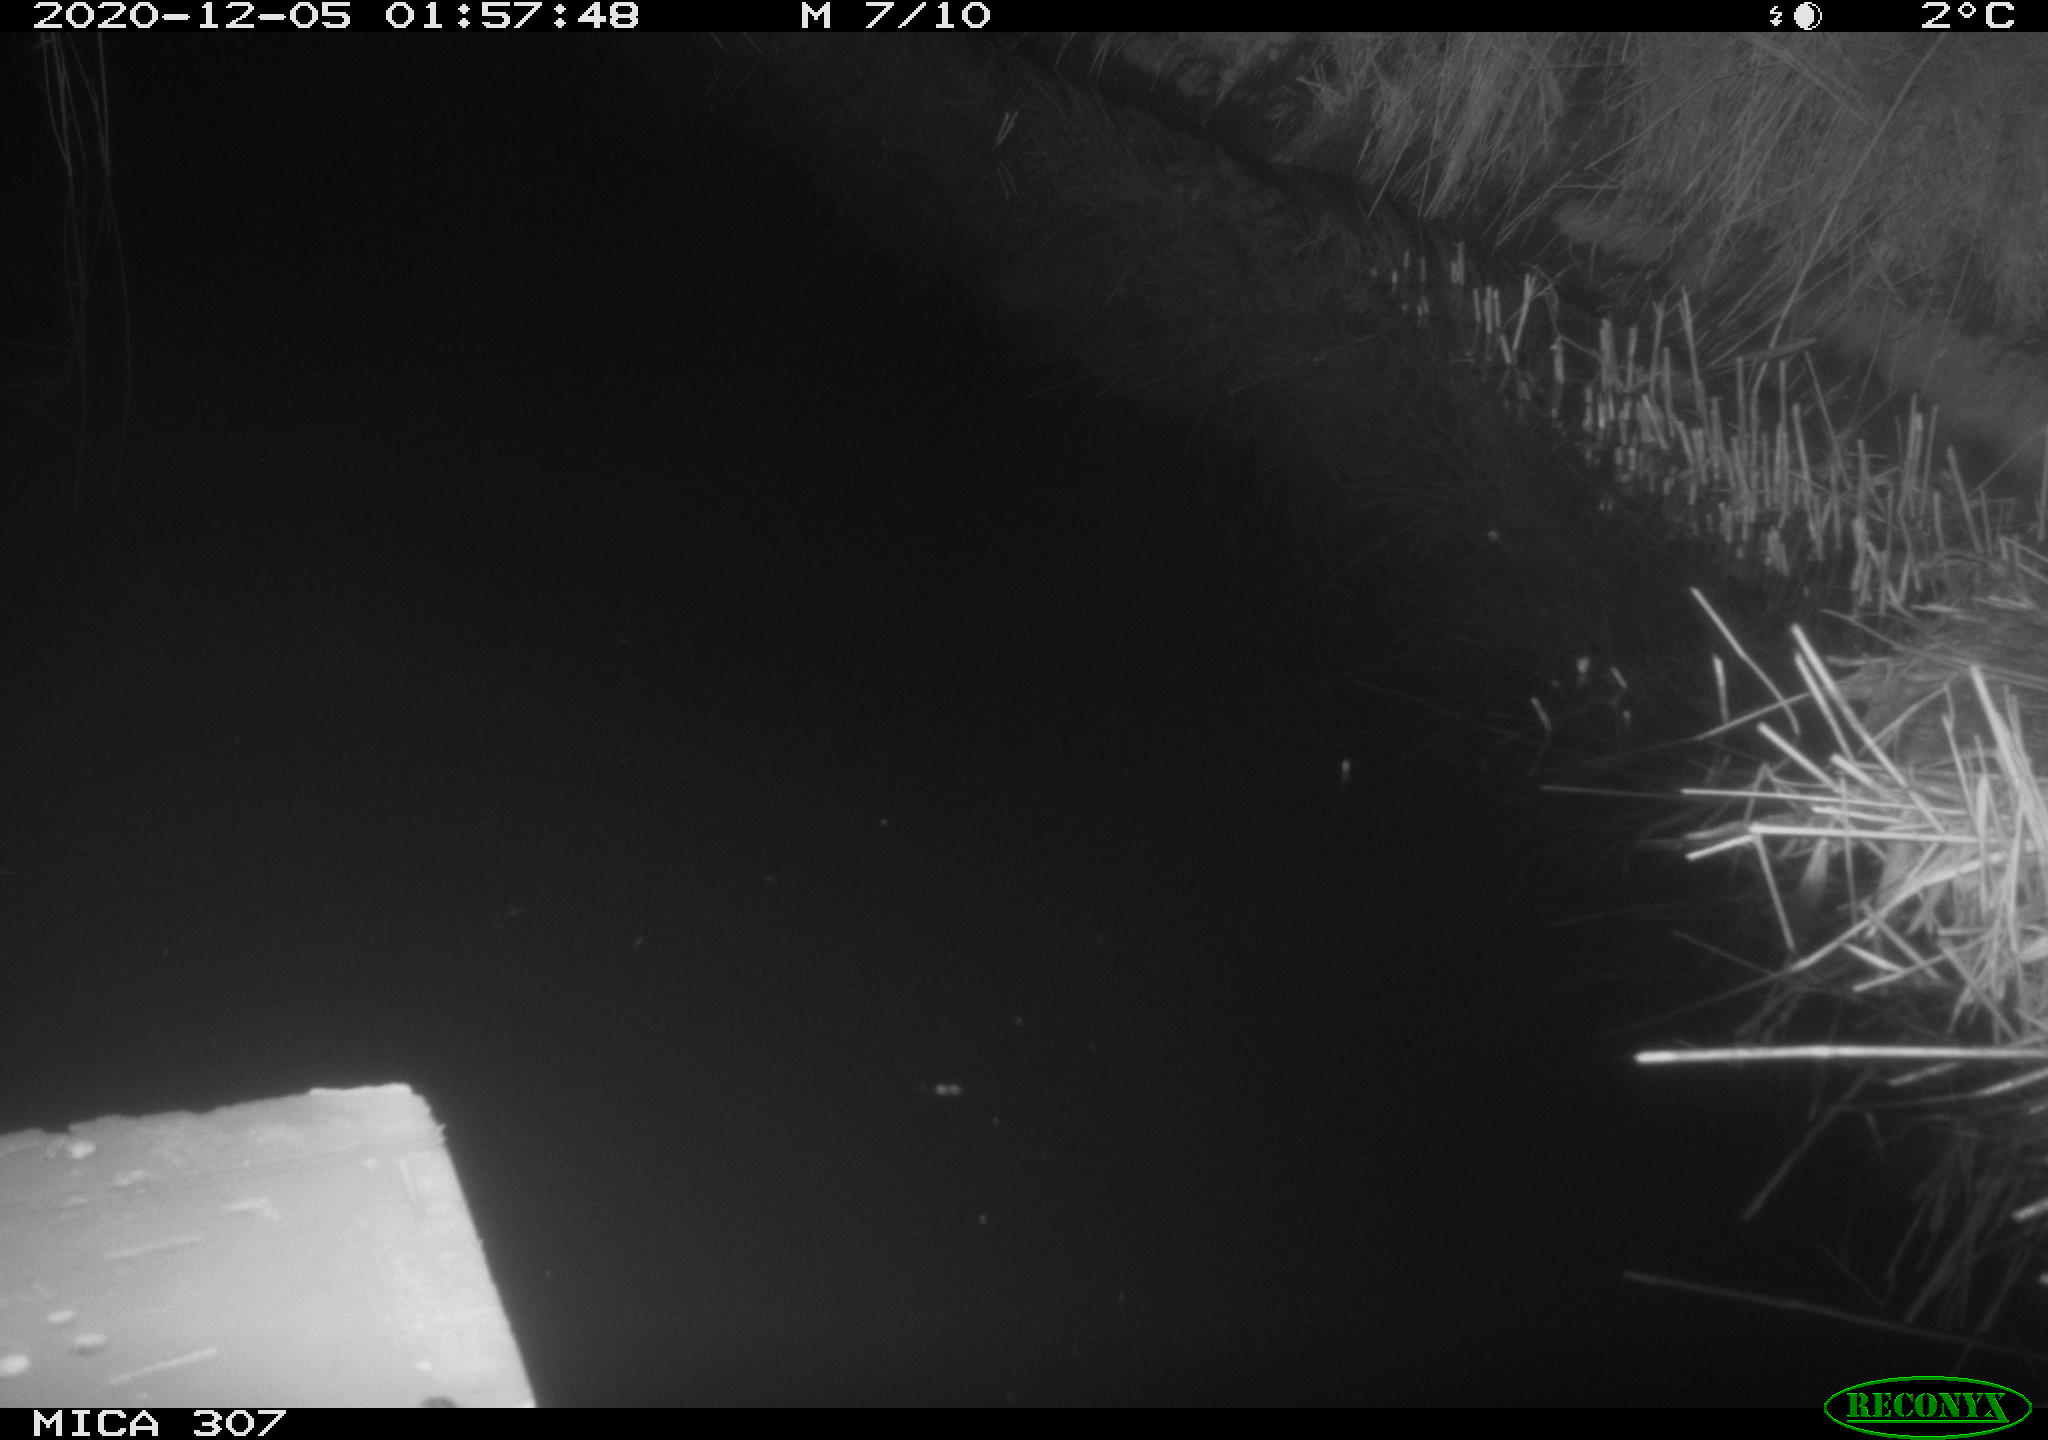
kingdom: Animalia
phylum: Chordata
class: Mammalia
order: Rodentia
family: Muridae
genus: Rattus
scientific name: Rattus norvegicus
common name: Brown rat
